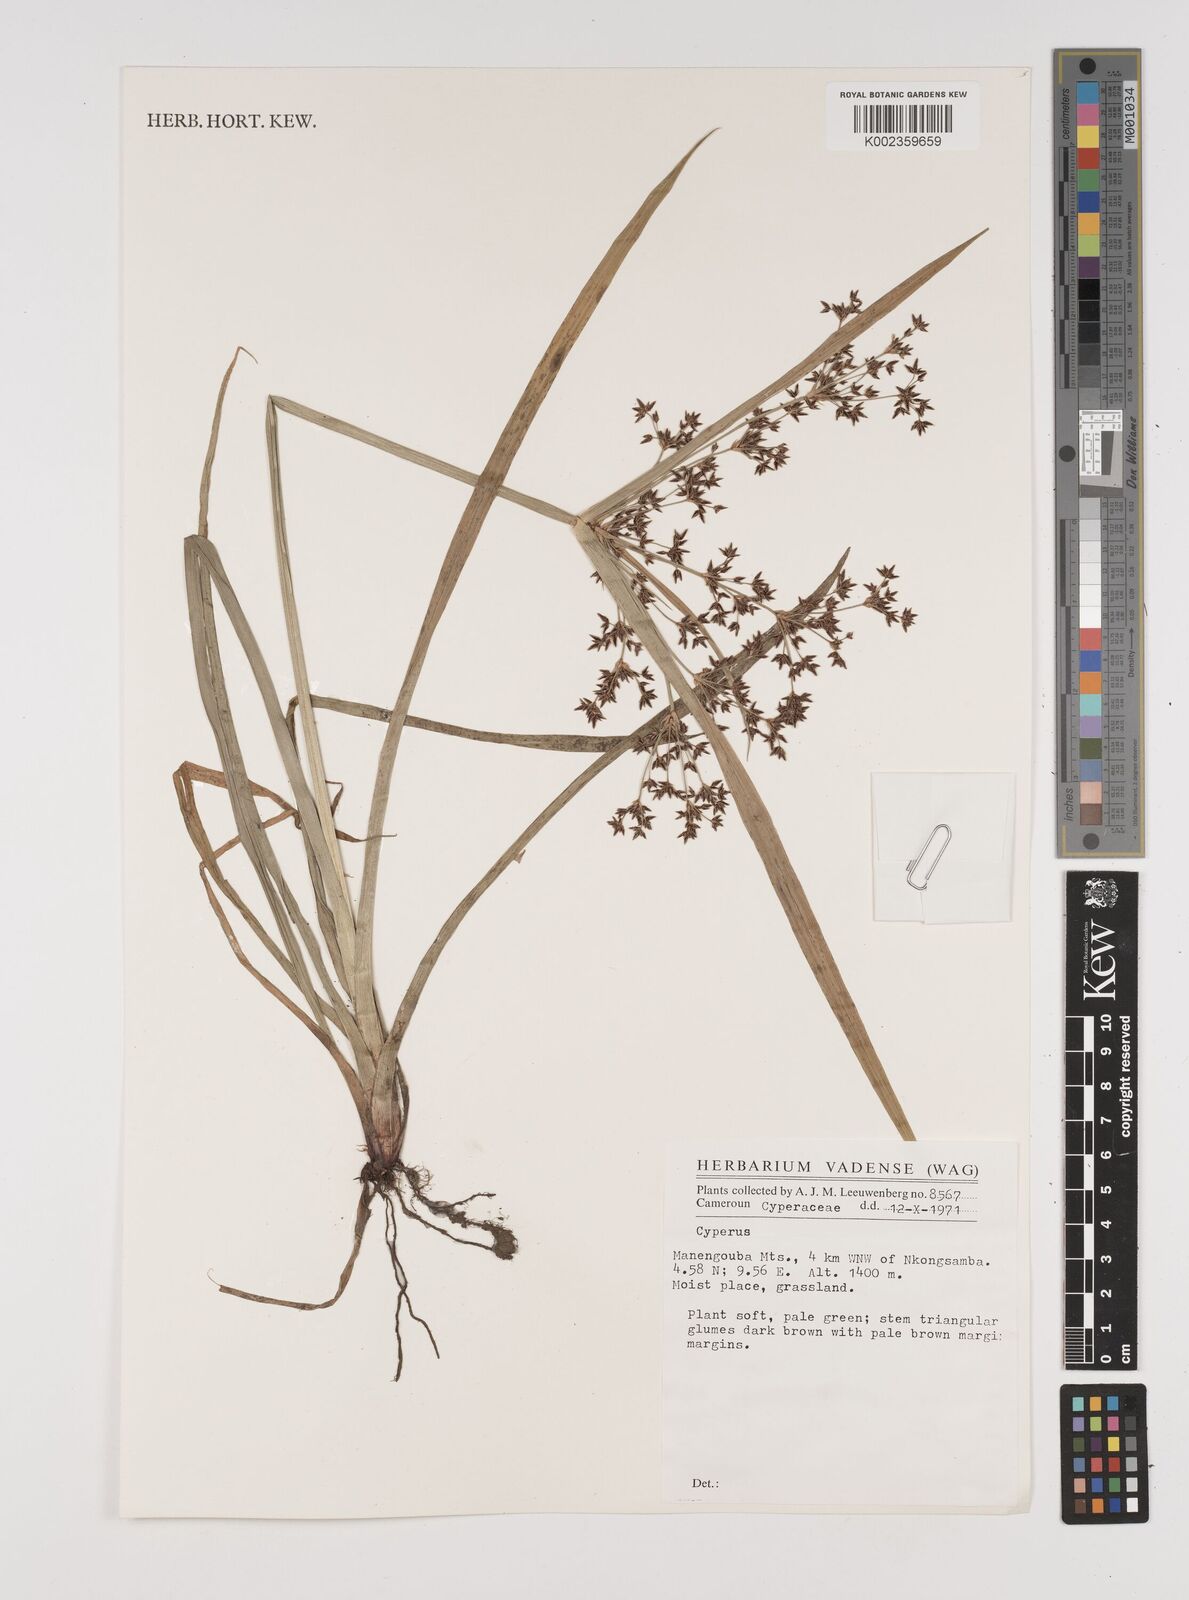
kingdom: Plantae
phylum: Tracheophyta
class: Liliopsida
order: Poales
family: Cyperaceae
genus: Cyperus
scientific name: Cyperus
